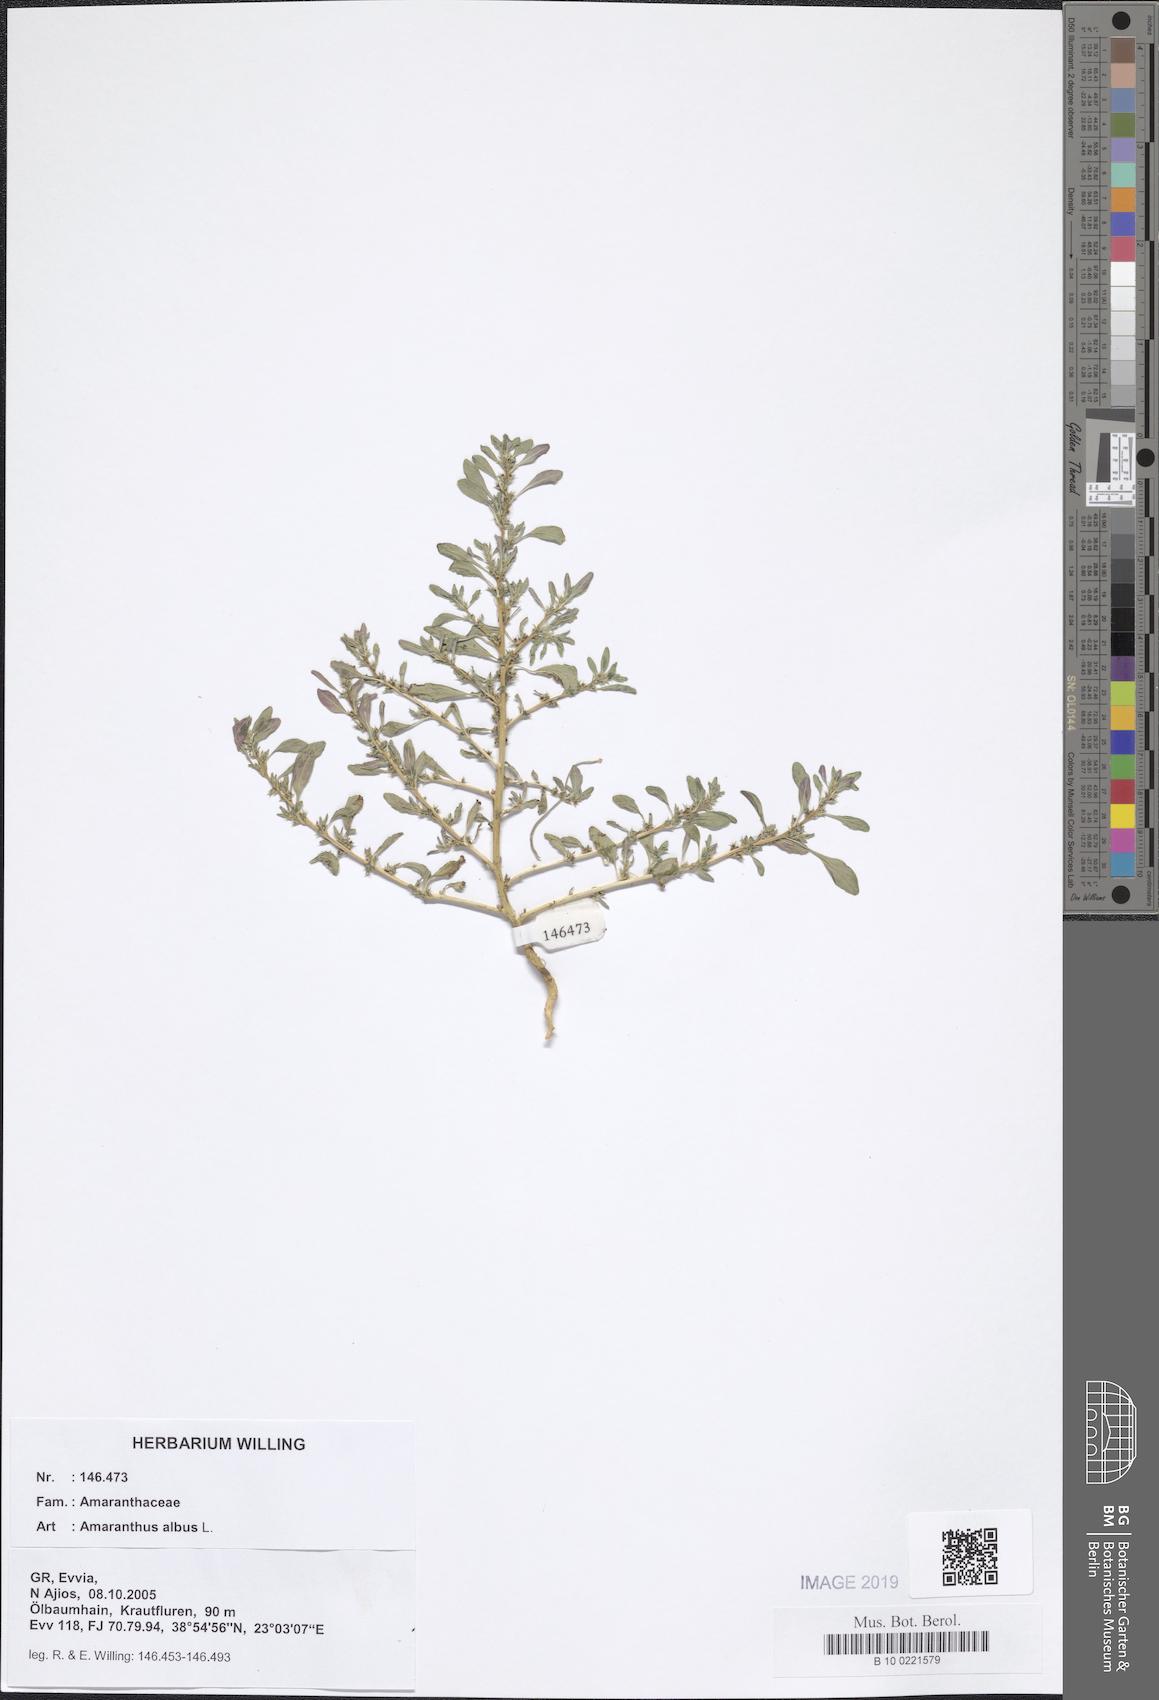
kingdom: Plantae
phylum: Tracheophyta
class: Magnoliopsida
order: Caryophyllales
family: Amaranthaceae
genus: Amaranthus
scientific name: Amaranthus albus
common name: White pigweed
